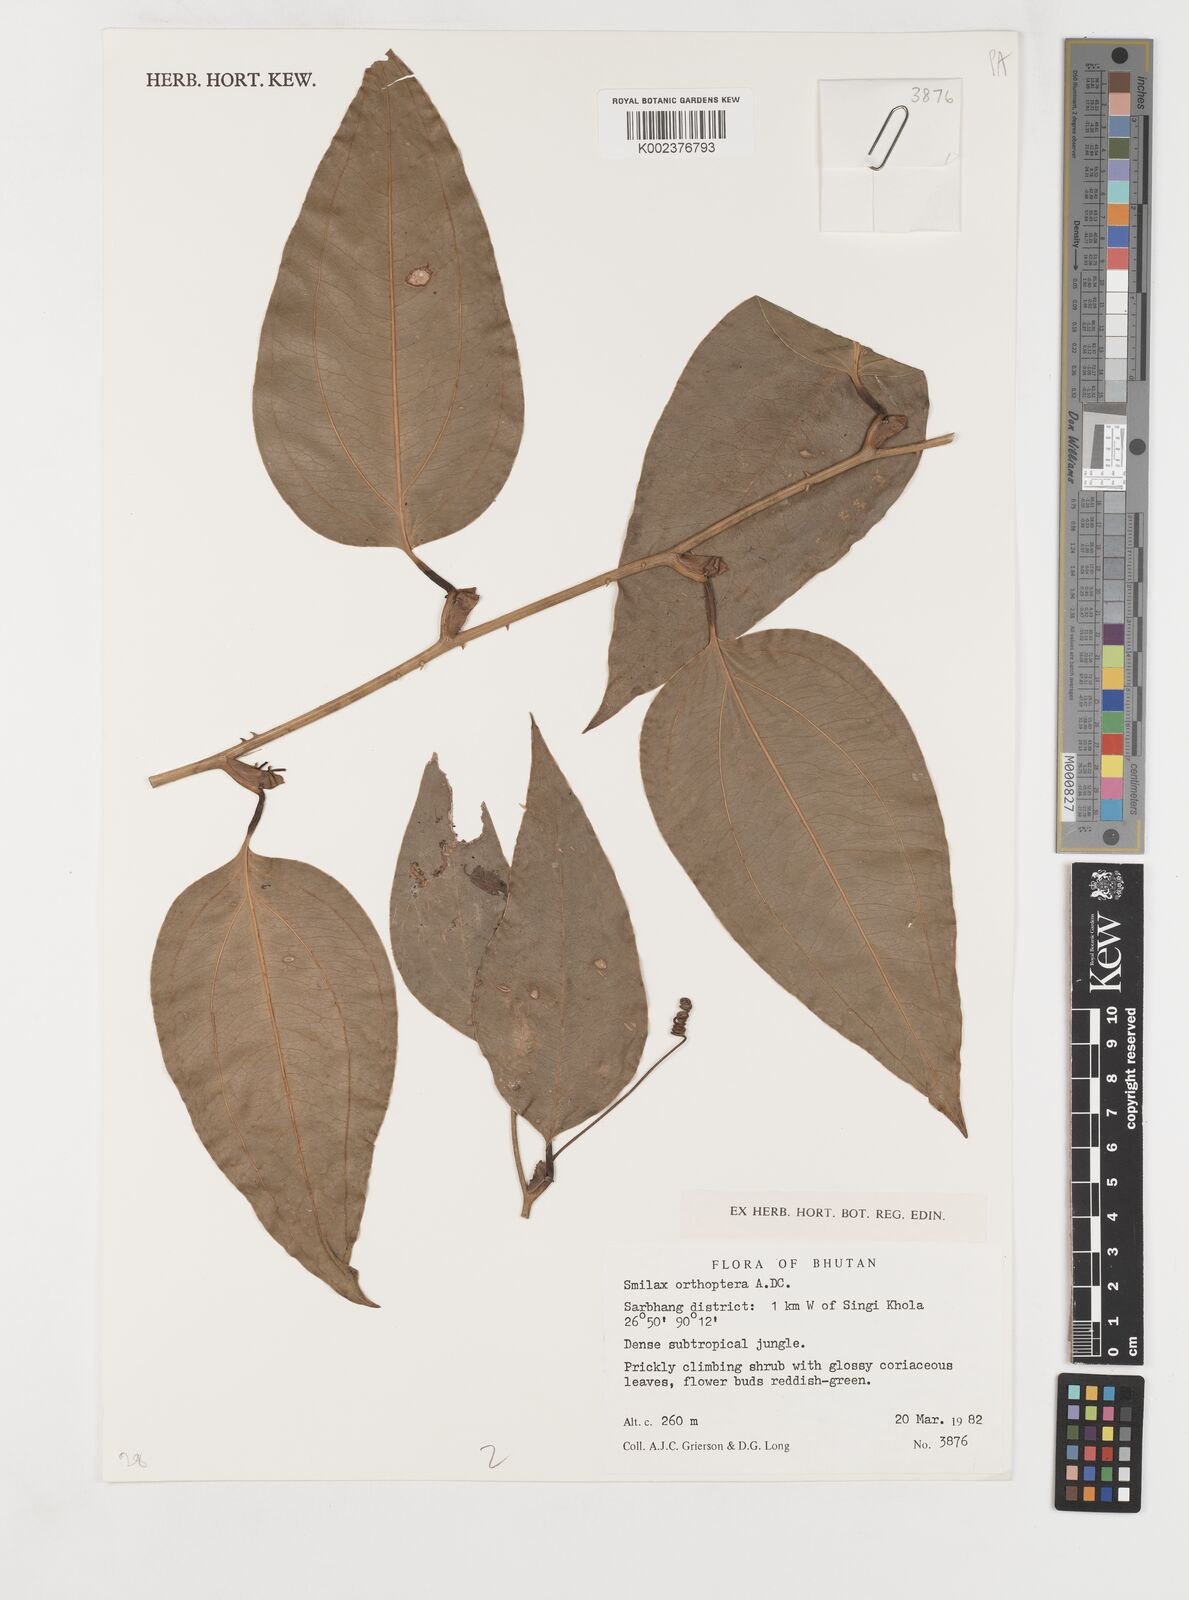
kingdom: Plantae
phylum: Tracheophyta
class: Liliopsida
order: Liliales
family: Smilacaceae
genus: Smilax
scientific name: Smilax orthoptera
